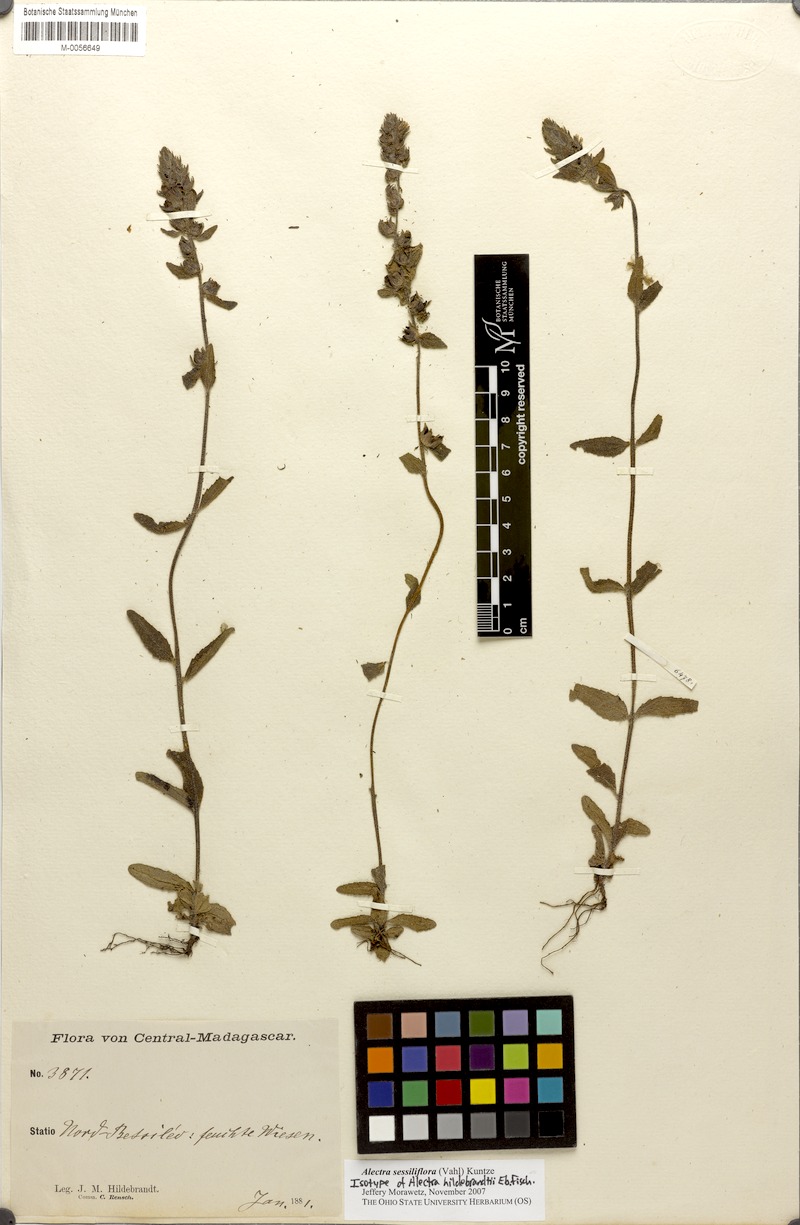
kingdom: Plantae
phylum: Tracheophyta
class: Magnoliopsida
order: Lamiales
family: Orobanchaceae
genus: Alectra
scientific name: Alectra sessiliflora
